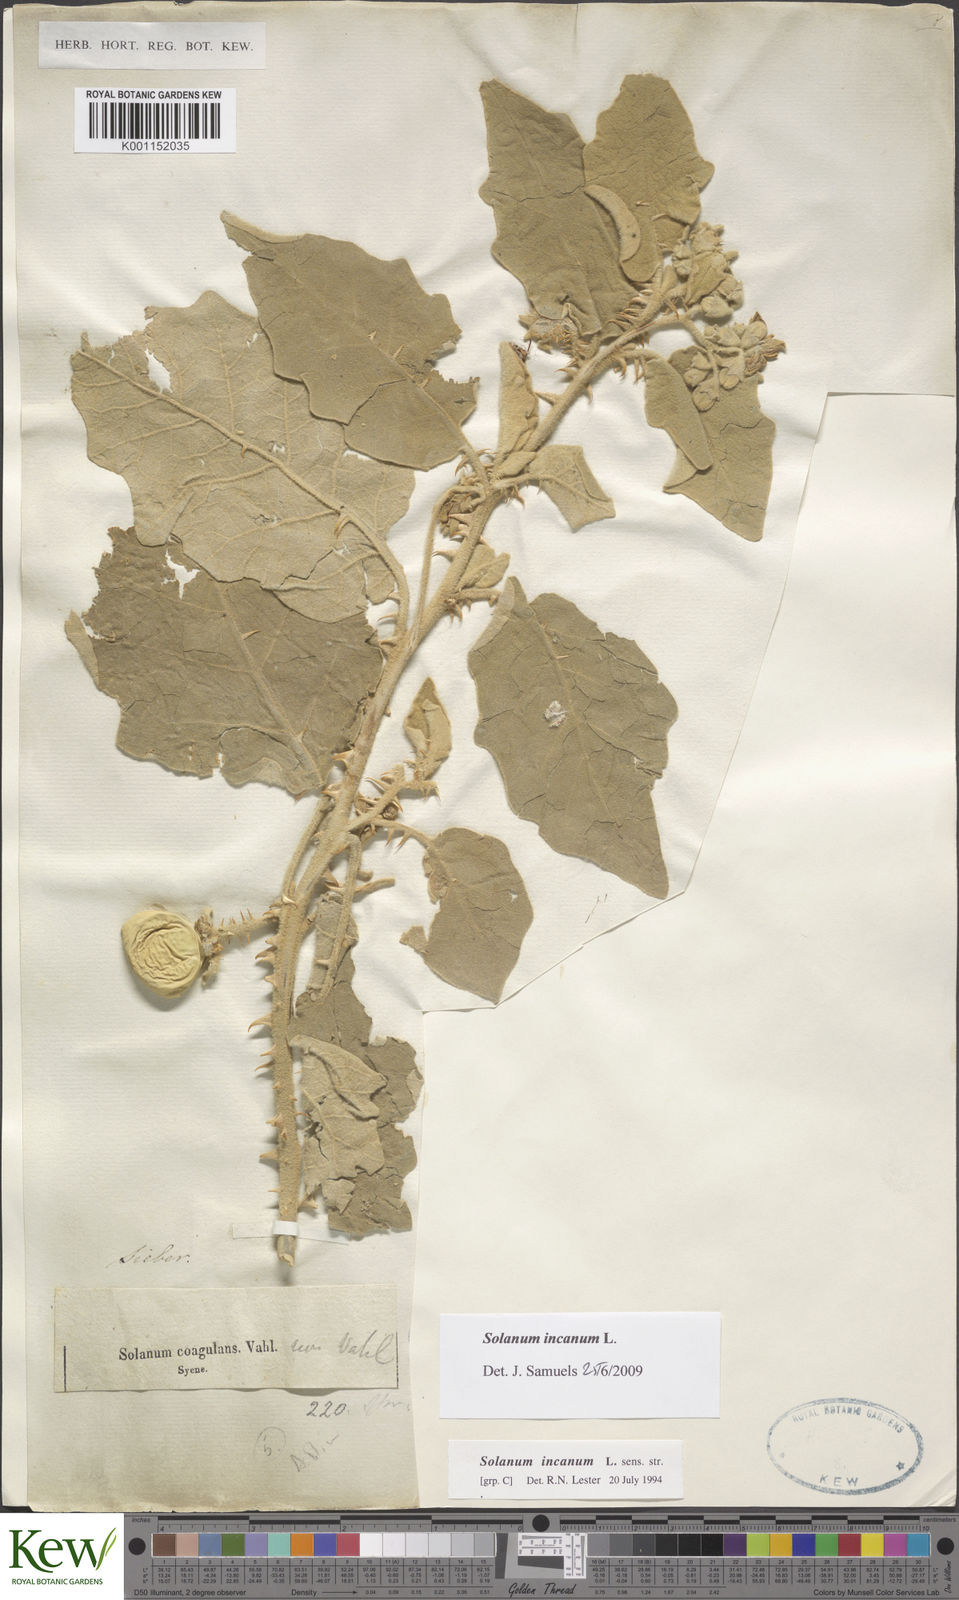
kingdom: Plantae
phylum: Tracheophyta
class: Magnoliopsida
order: Solanales
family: Solanaceae
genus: Solanum
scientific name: Solanum incanum
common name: Bitter apple
